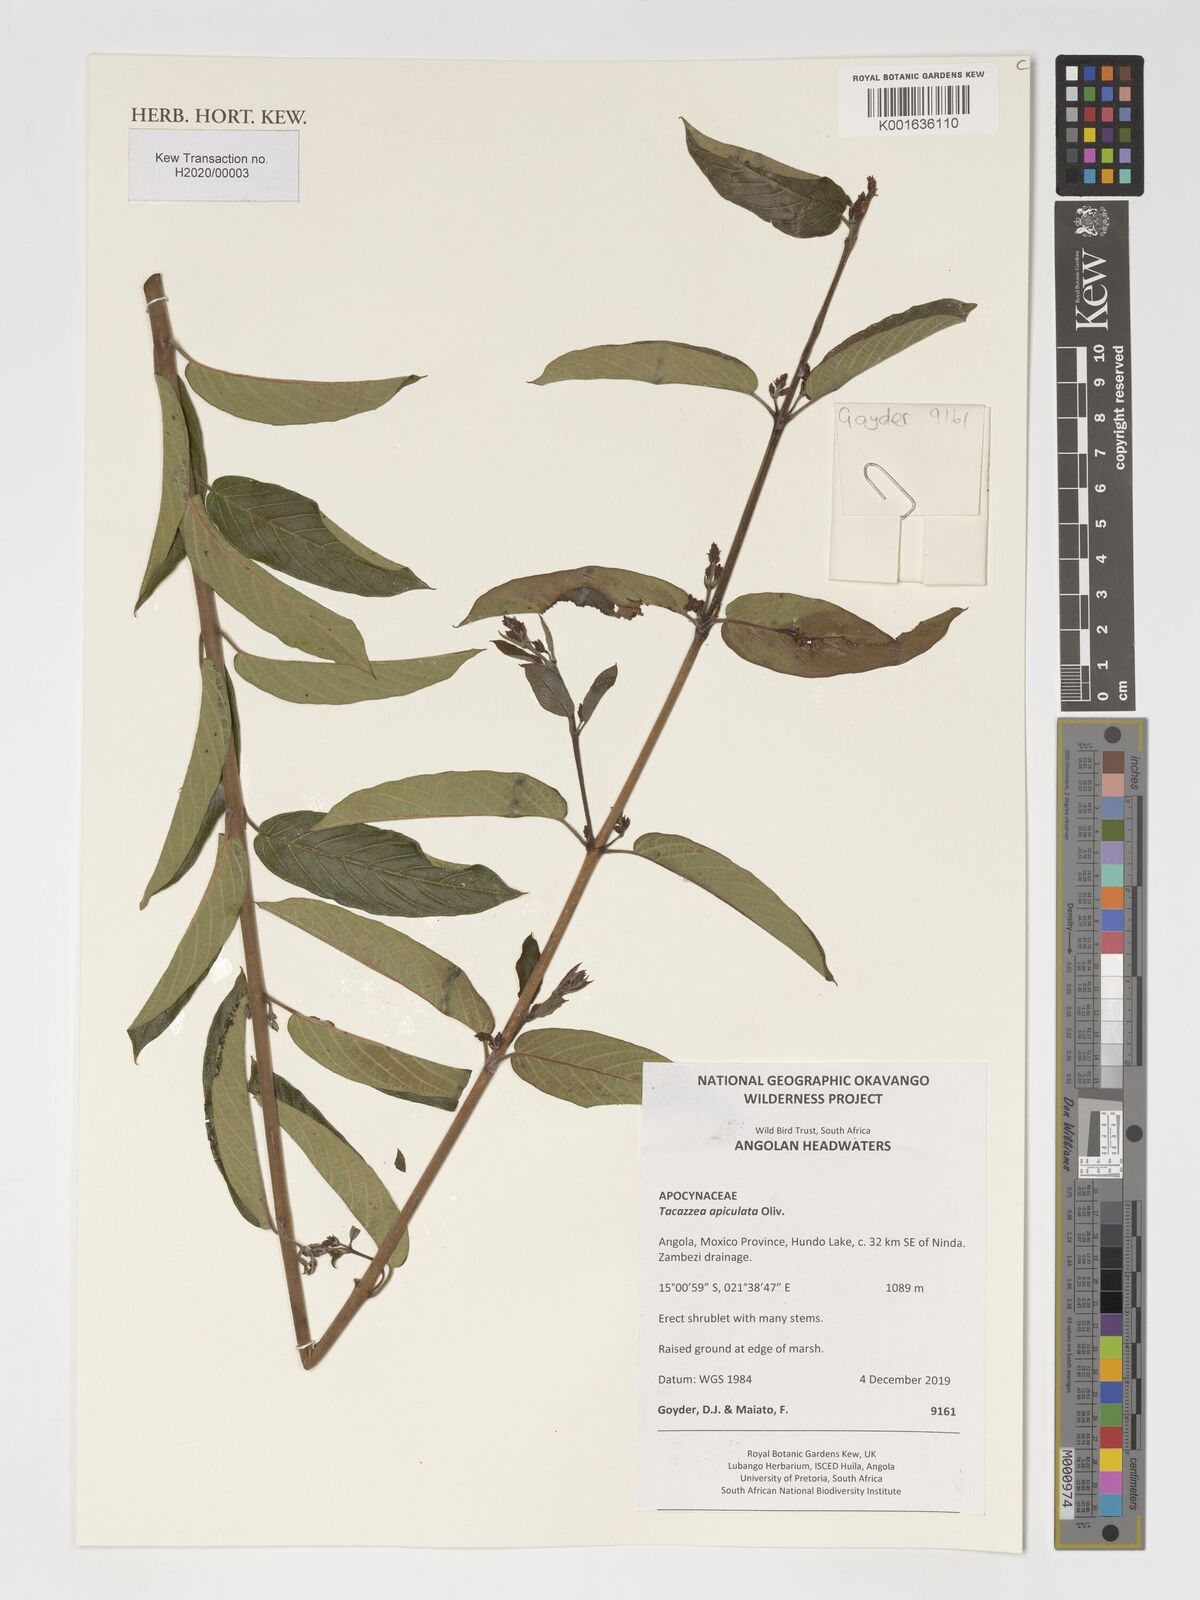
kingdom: Plantae
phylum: Tracheophyta
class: Magnoliopsida
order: Gentianales
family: Apocynaceae
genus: Tacazzea
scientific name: Tacazzea apiculata
